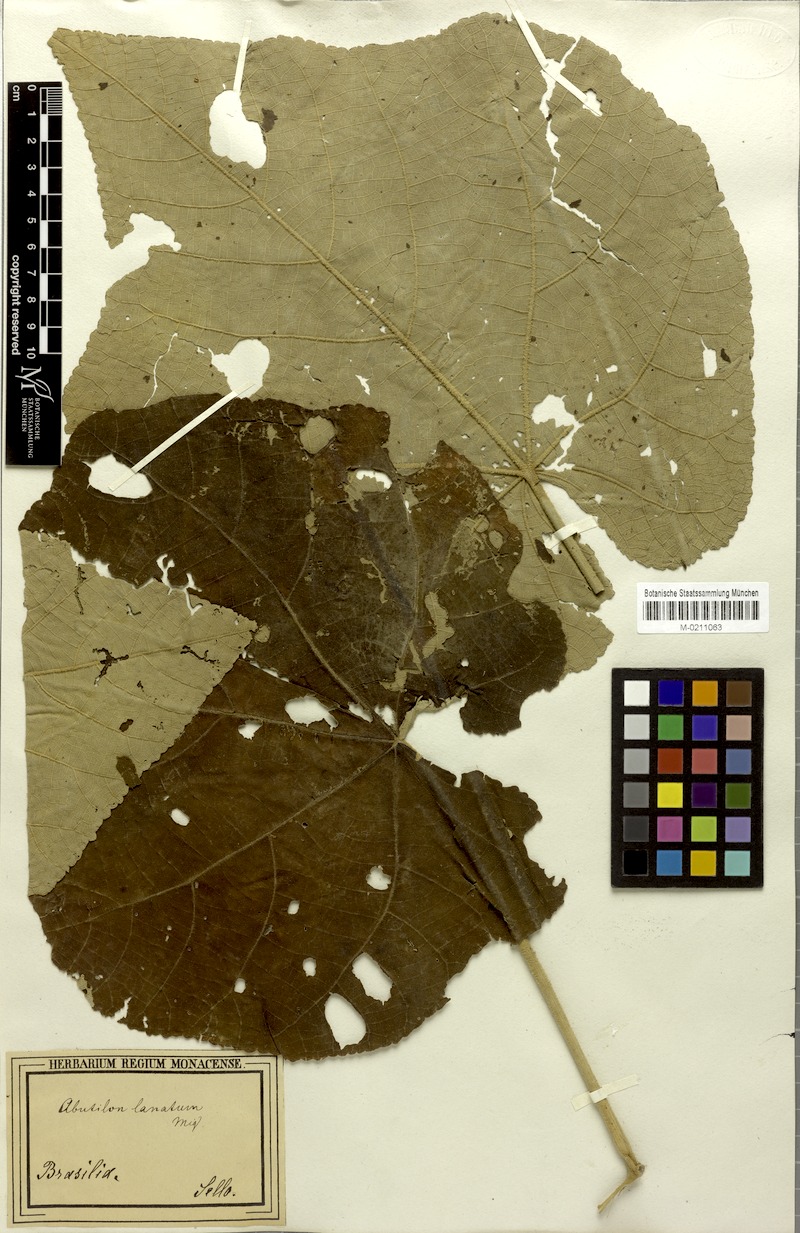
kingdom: Plantae
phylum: Tracheophyta
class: Magnoliopsida
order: Malvales
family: Malvaceae
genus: Callianthe
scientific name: Callianthe lanata
